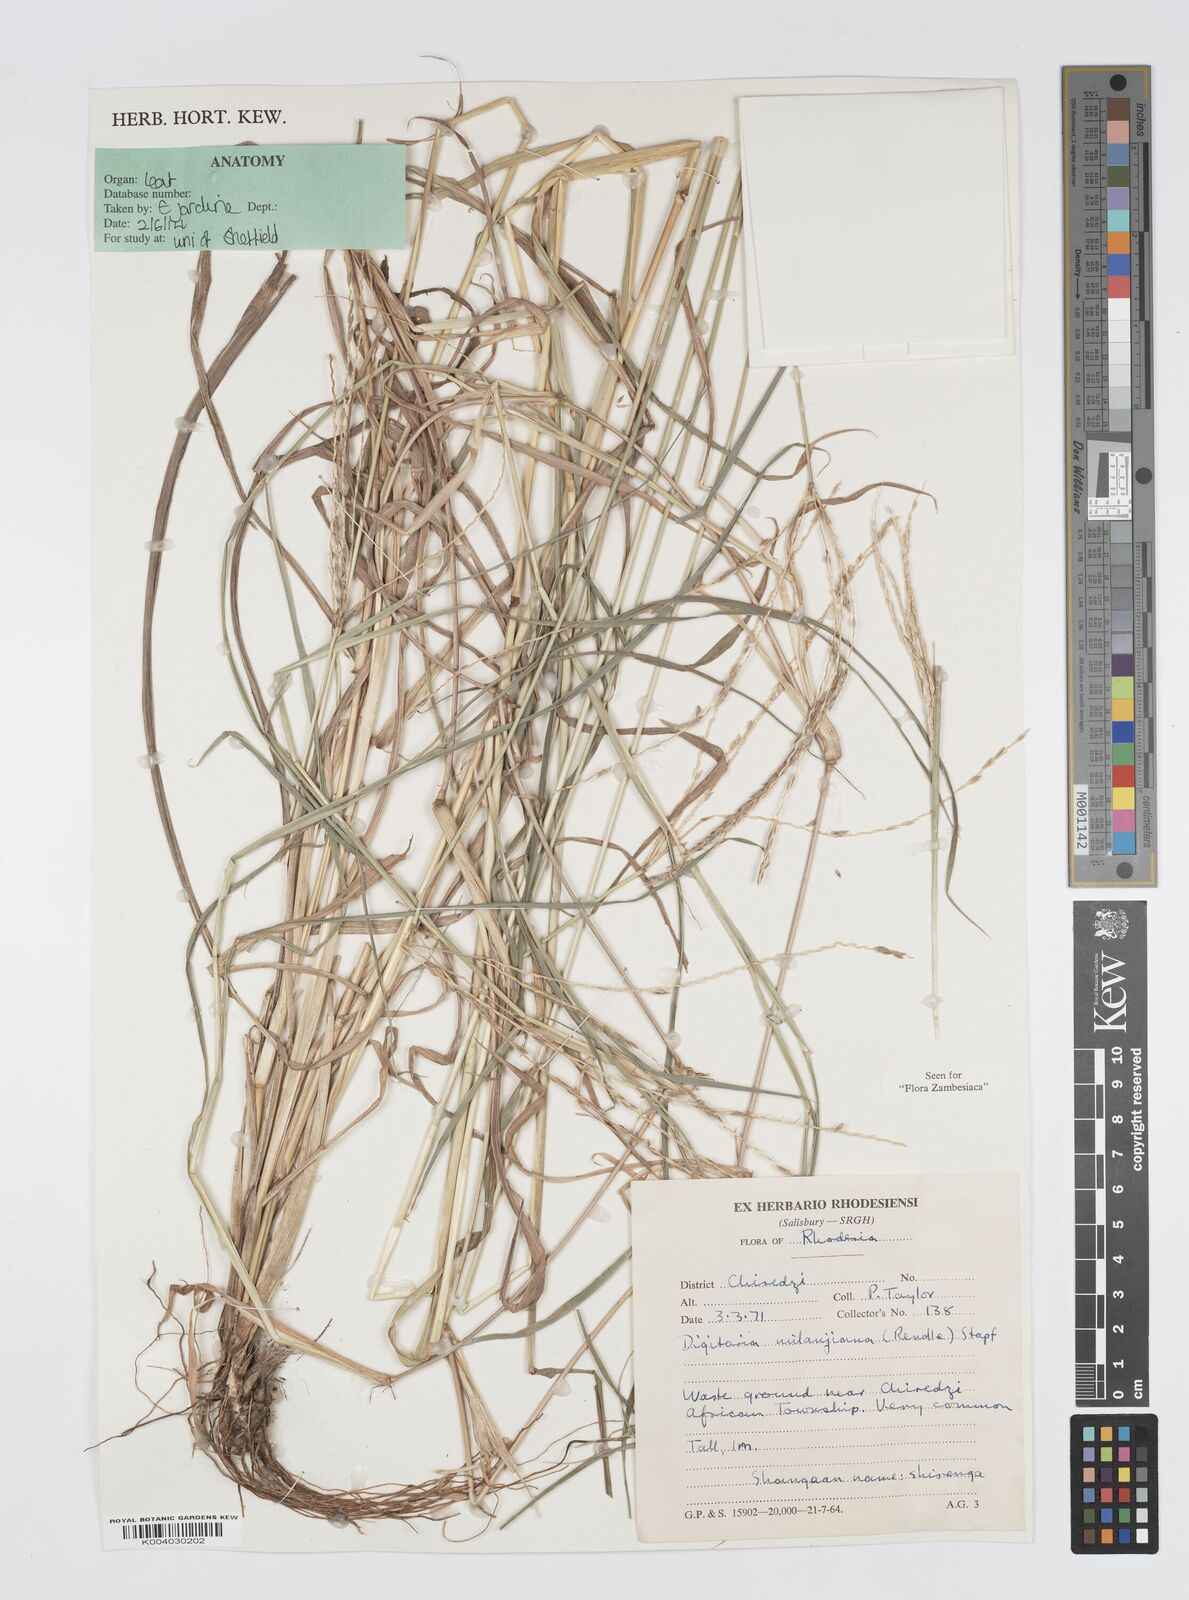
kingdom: Plantae
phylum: Tracheophyta
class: Liliopsida
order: Poales
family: Poaceae
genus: Digitaria
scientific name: Digitaria milanjiana
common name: Madagascar crabgrass
